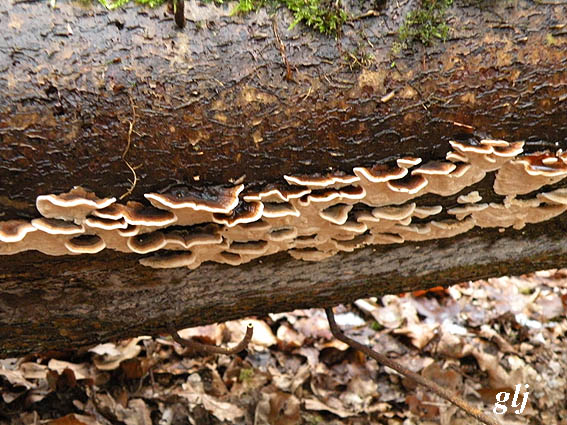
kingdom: Fungi
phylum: Basidiomycota
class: Agaricomycetes
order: Polyporales
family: Polyporaceae
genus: Trametes
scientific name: Trametes versicolor
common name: broget læderporesvamp
